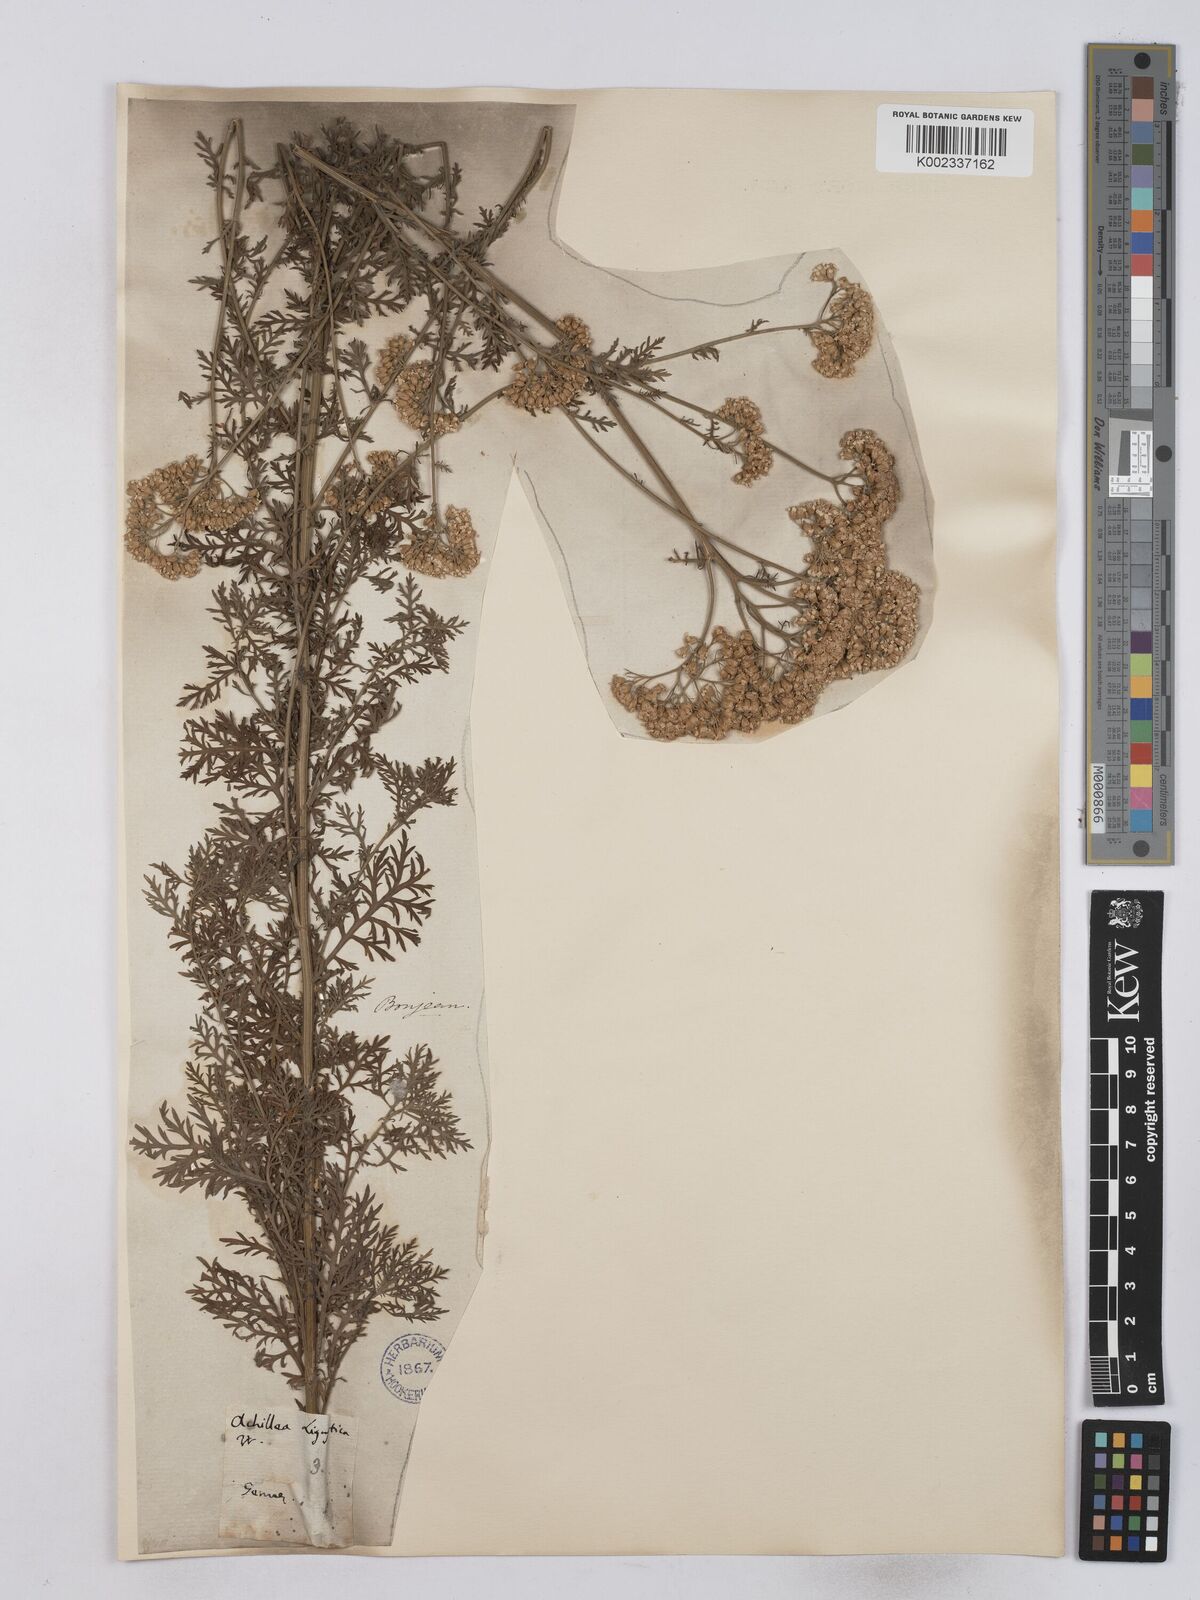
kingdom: Plantae
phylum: Tracheophyta
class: Magnoliopsida
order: Asterales
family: Asteraceae
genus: Achillea
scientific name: Achillea ligustica
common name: Southern yarrow
